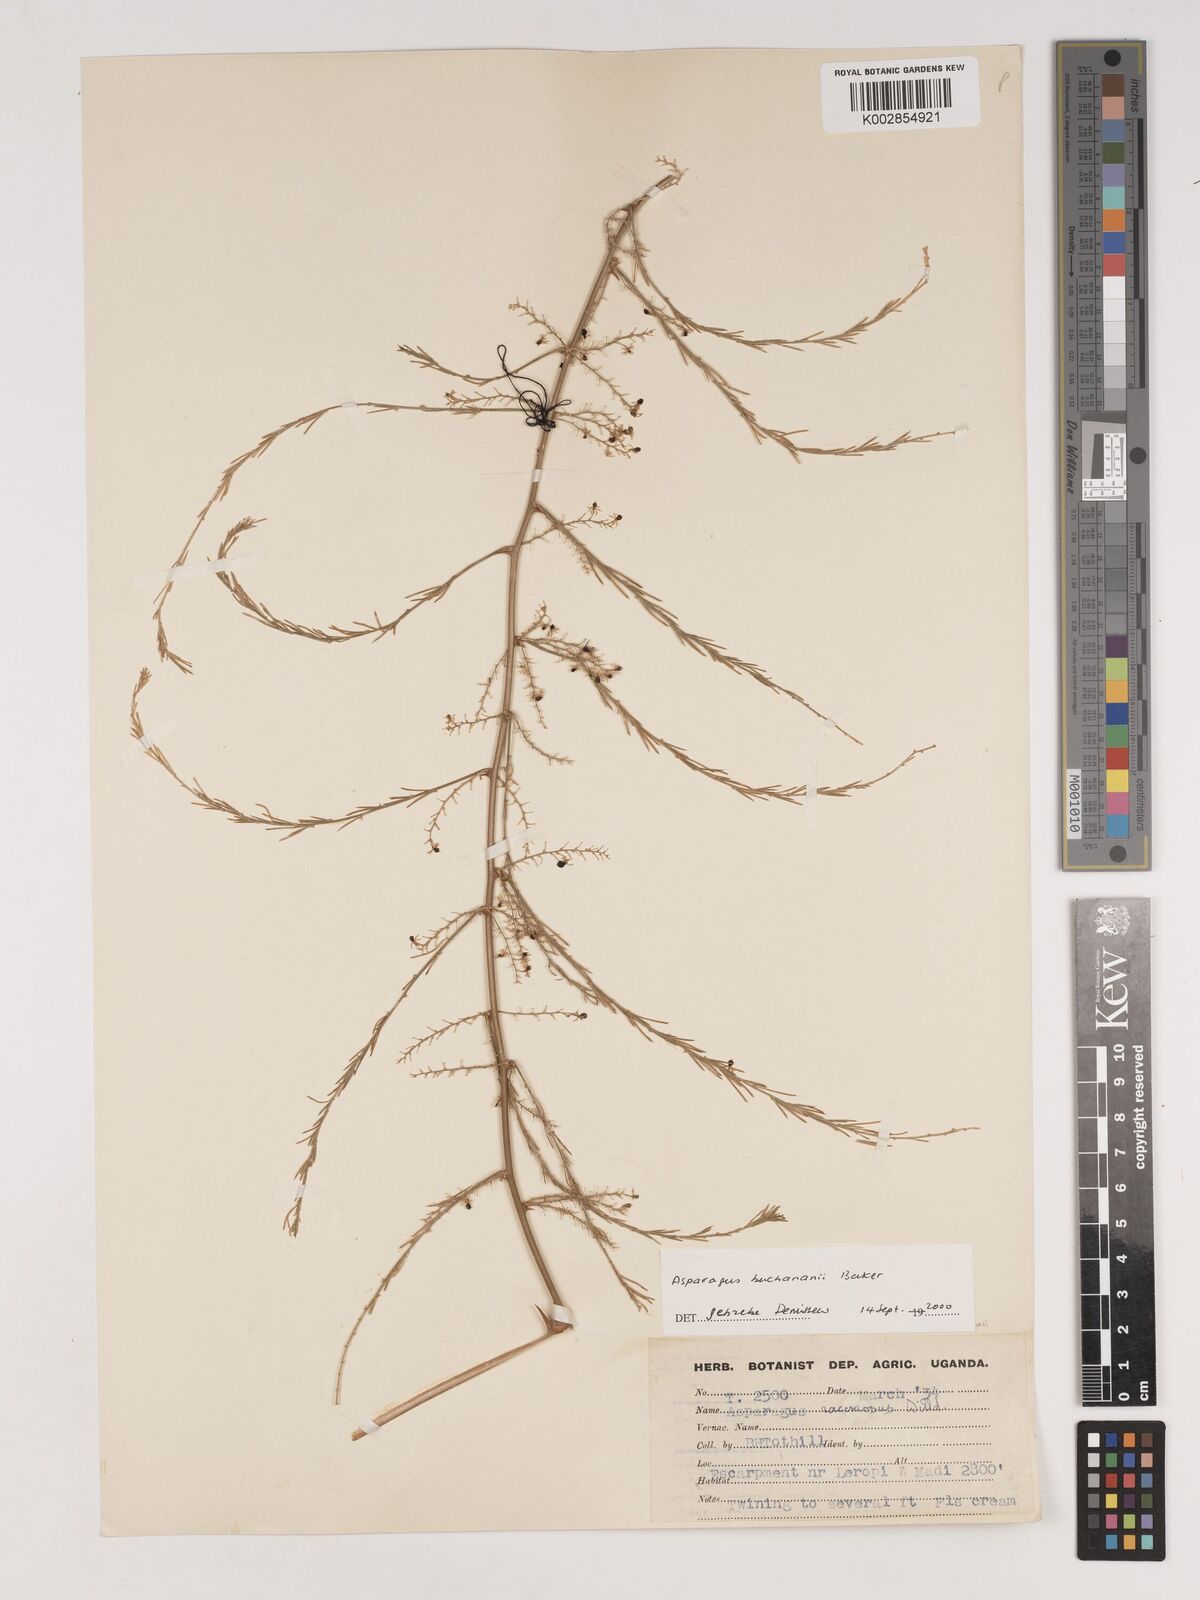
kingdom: Plantae
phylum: Tracheophyta
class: Liliopsida
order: Asparagales
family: Asparagaceae
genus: Asparagus
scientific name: Asparagus buchananii
